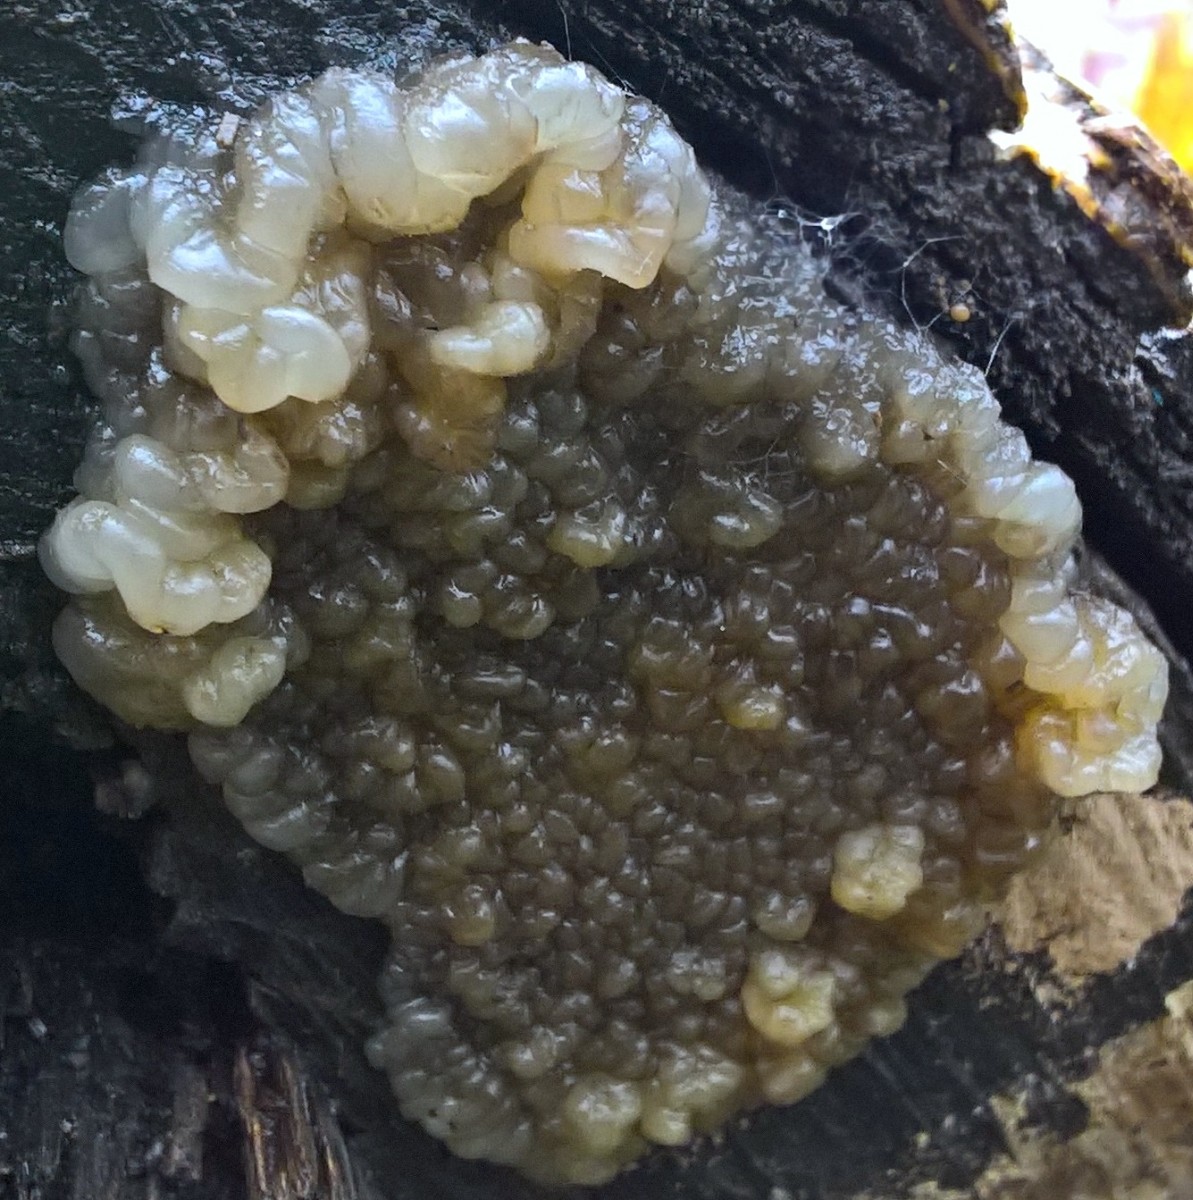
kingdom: Fungi
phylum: Basidiomycota
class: Agaricomycetes
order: Auriculariales
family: Auriculariaceae
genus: Exidia
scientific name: Exidia nigricans
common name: almindelig bævretop
